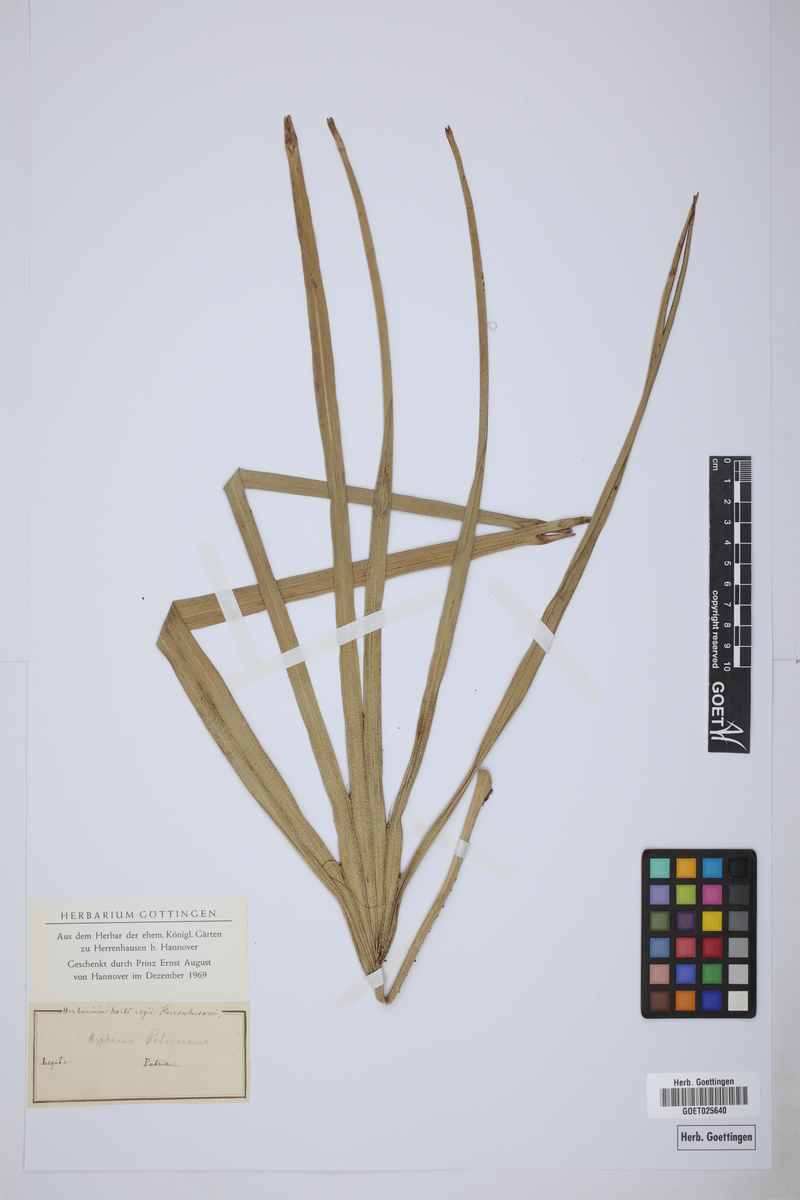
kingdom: Plantae
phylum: Tracheophyta
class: Liliopsida
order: Arecales
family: Arecaceae
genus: Hyphaene
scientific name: Hyphaene petersiana
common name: African ivory nut palm
